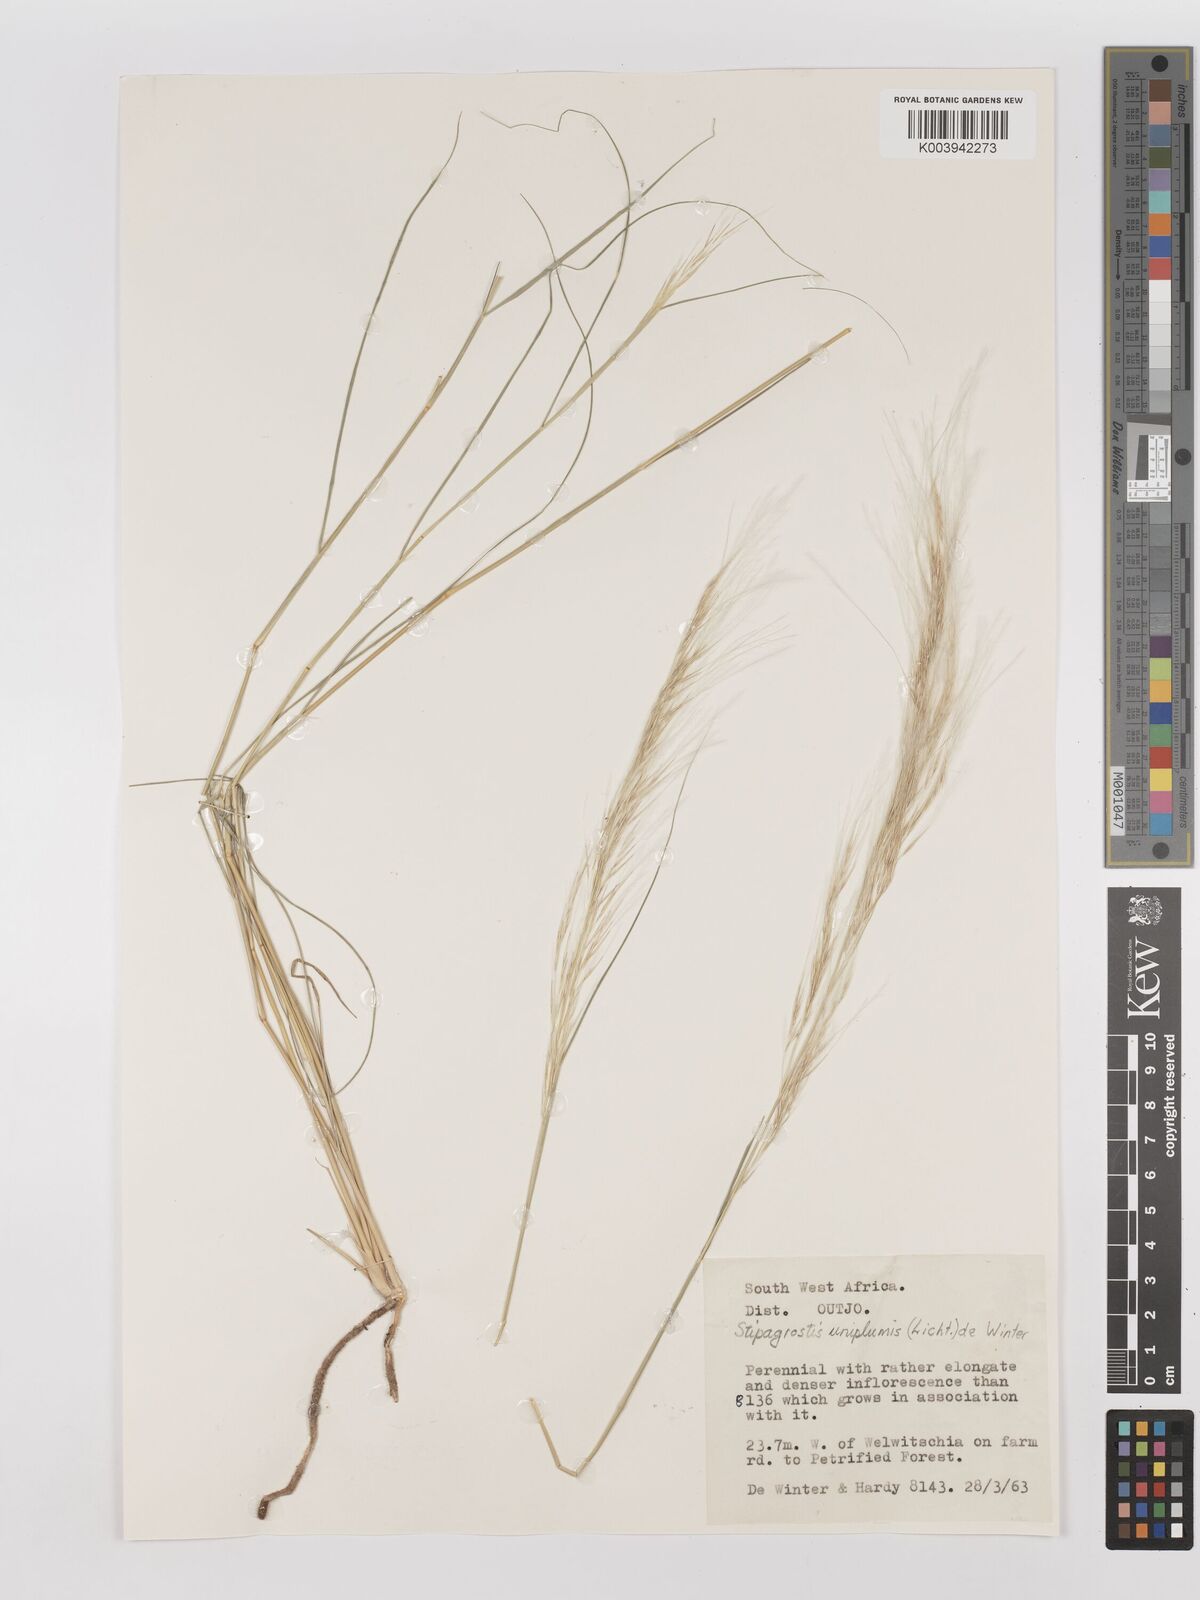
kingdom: Plantae
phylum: Tracheophyta
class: Liliopsida
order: Poales
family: Poaceae
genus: Stipagrostis
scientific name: Stipagrostis uniplumis
